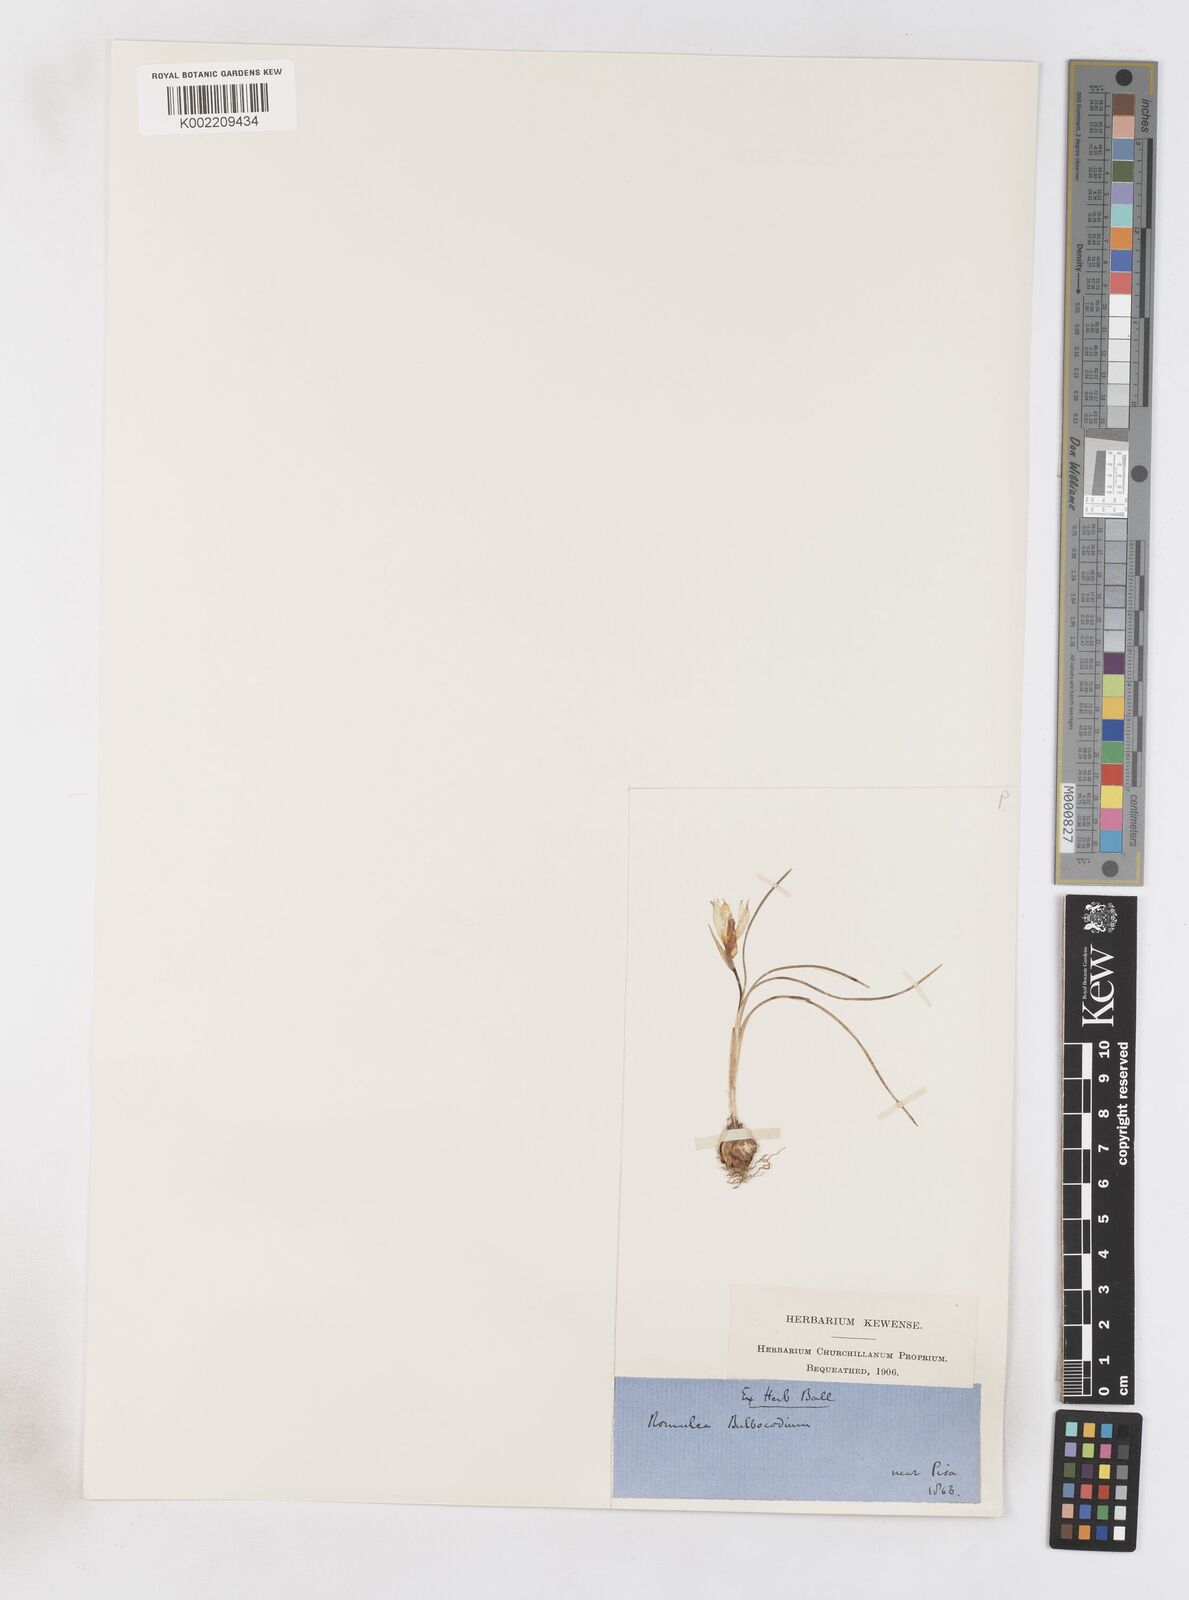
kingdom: Plantae
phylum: Tracheophyta
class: Liliopsida
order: Asparagales
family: Iridaceae
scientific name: Iridaceae
